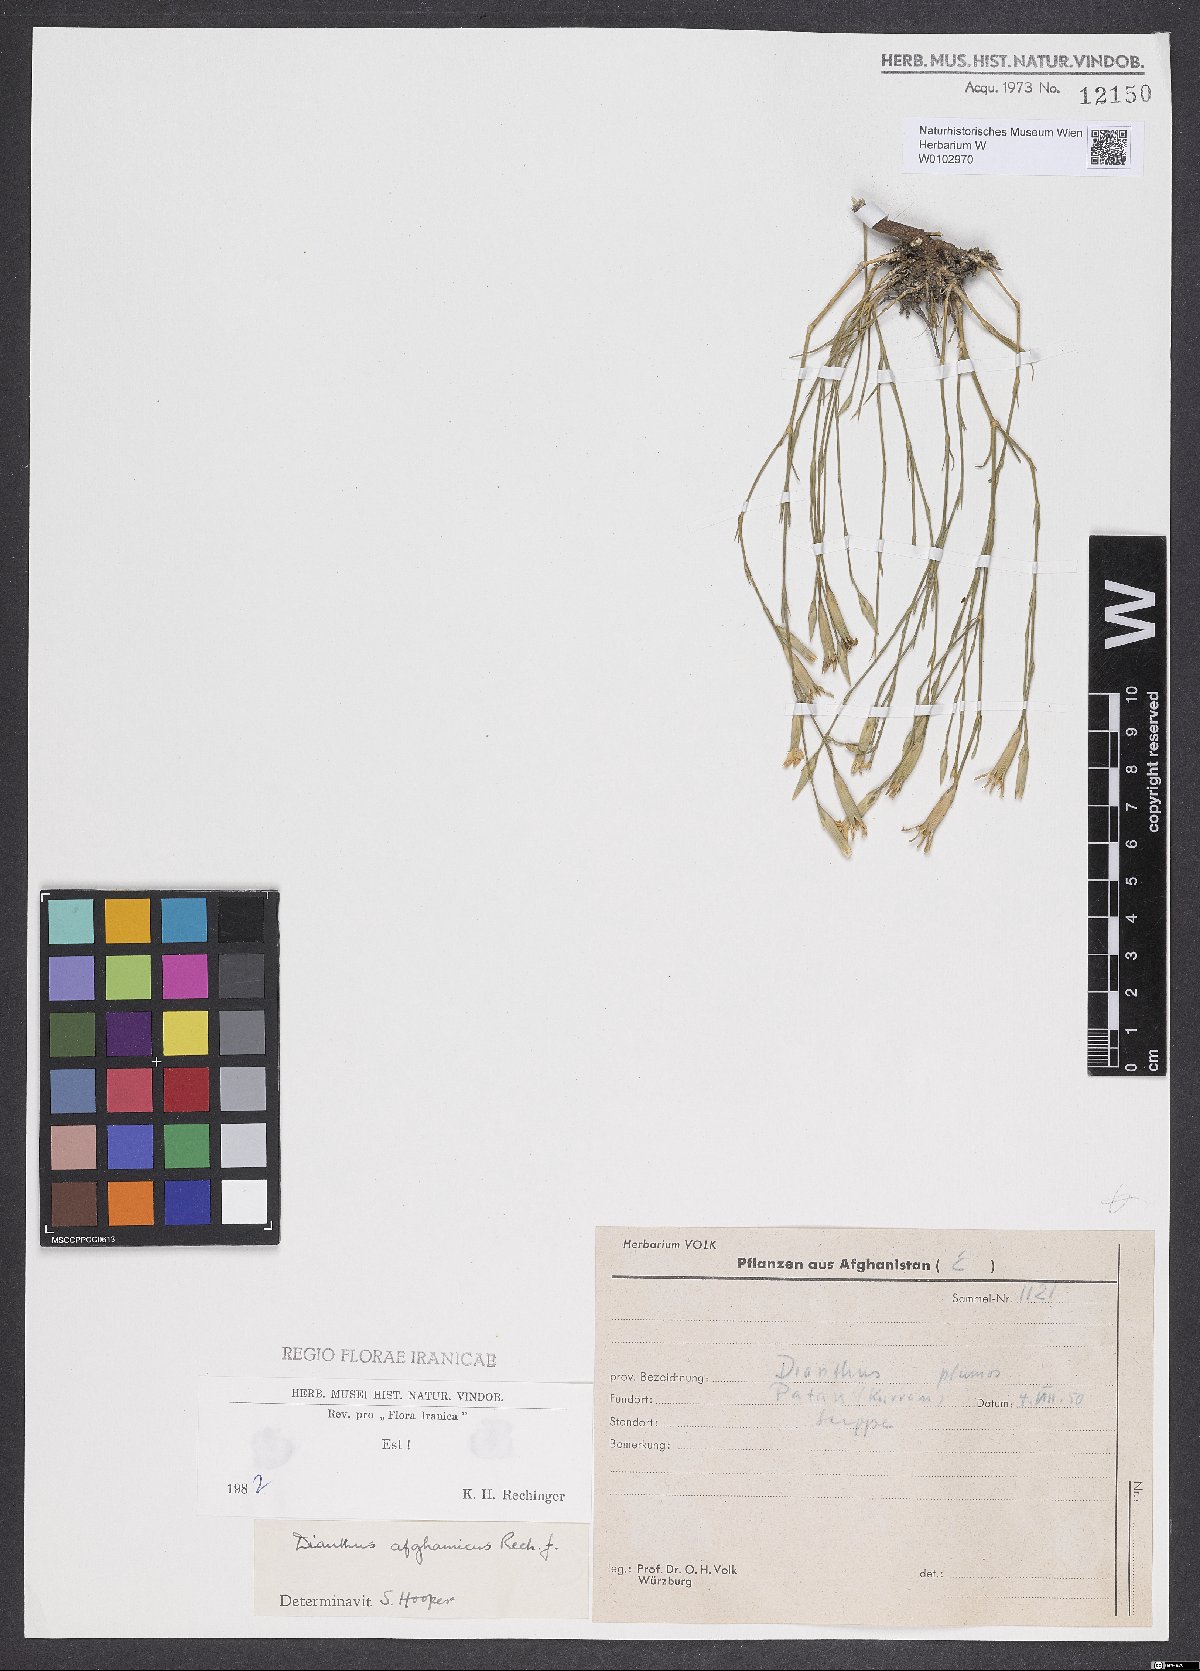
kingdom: Plantae
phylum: Tracheophyta
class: Magnoliopsida
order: Caryophyllales
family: Caryophyllaceae
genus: Dianthus
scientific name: Dianthus afghanicus
